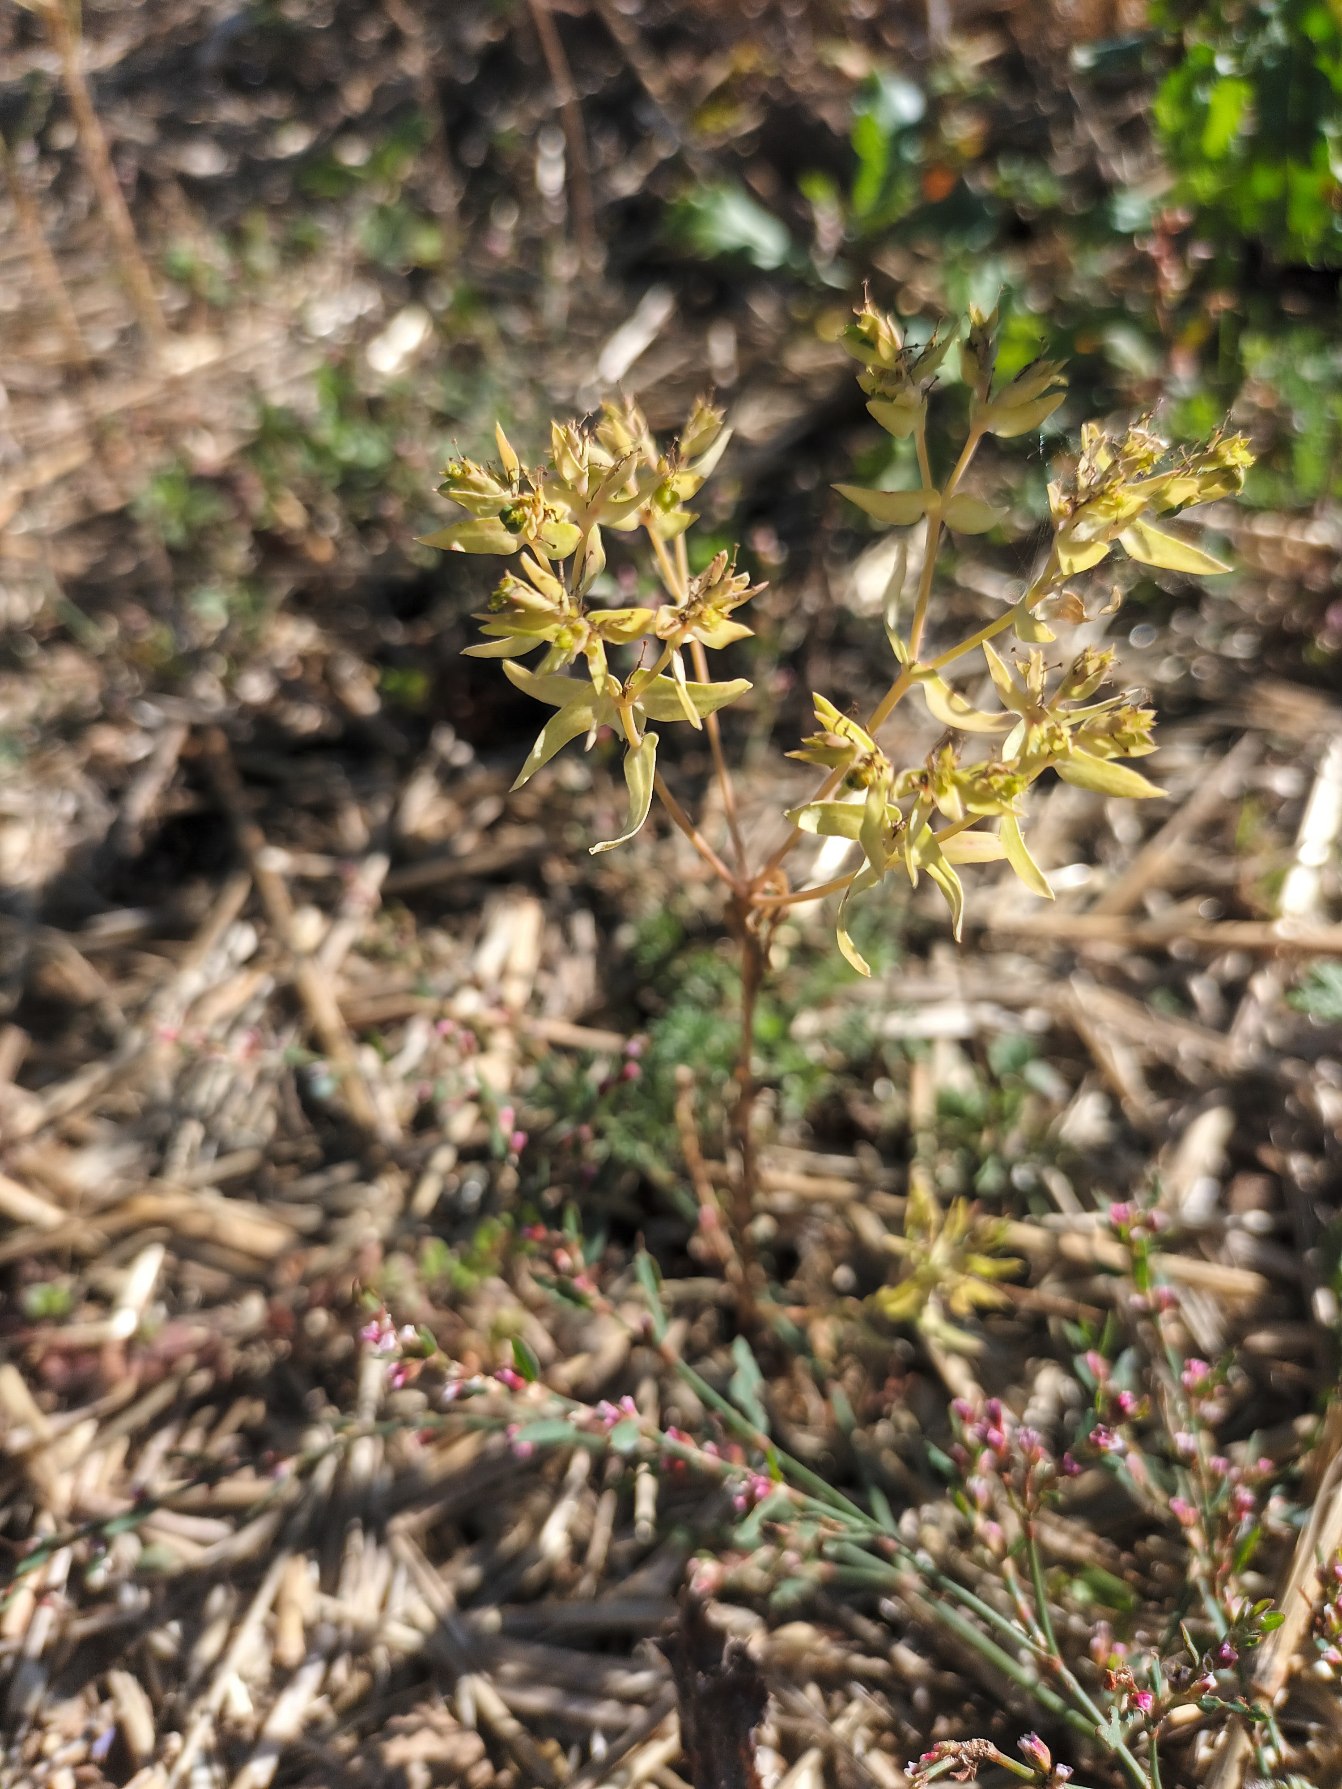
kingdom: Plantae
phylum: Tracheophyta
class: Magnoliopsida
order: Malpighiales
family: Euphorbiaceae
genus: Euphorbia
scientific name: Euphorbia exigua
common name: Liden vortemælk
